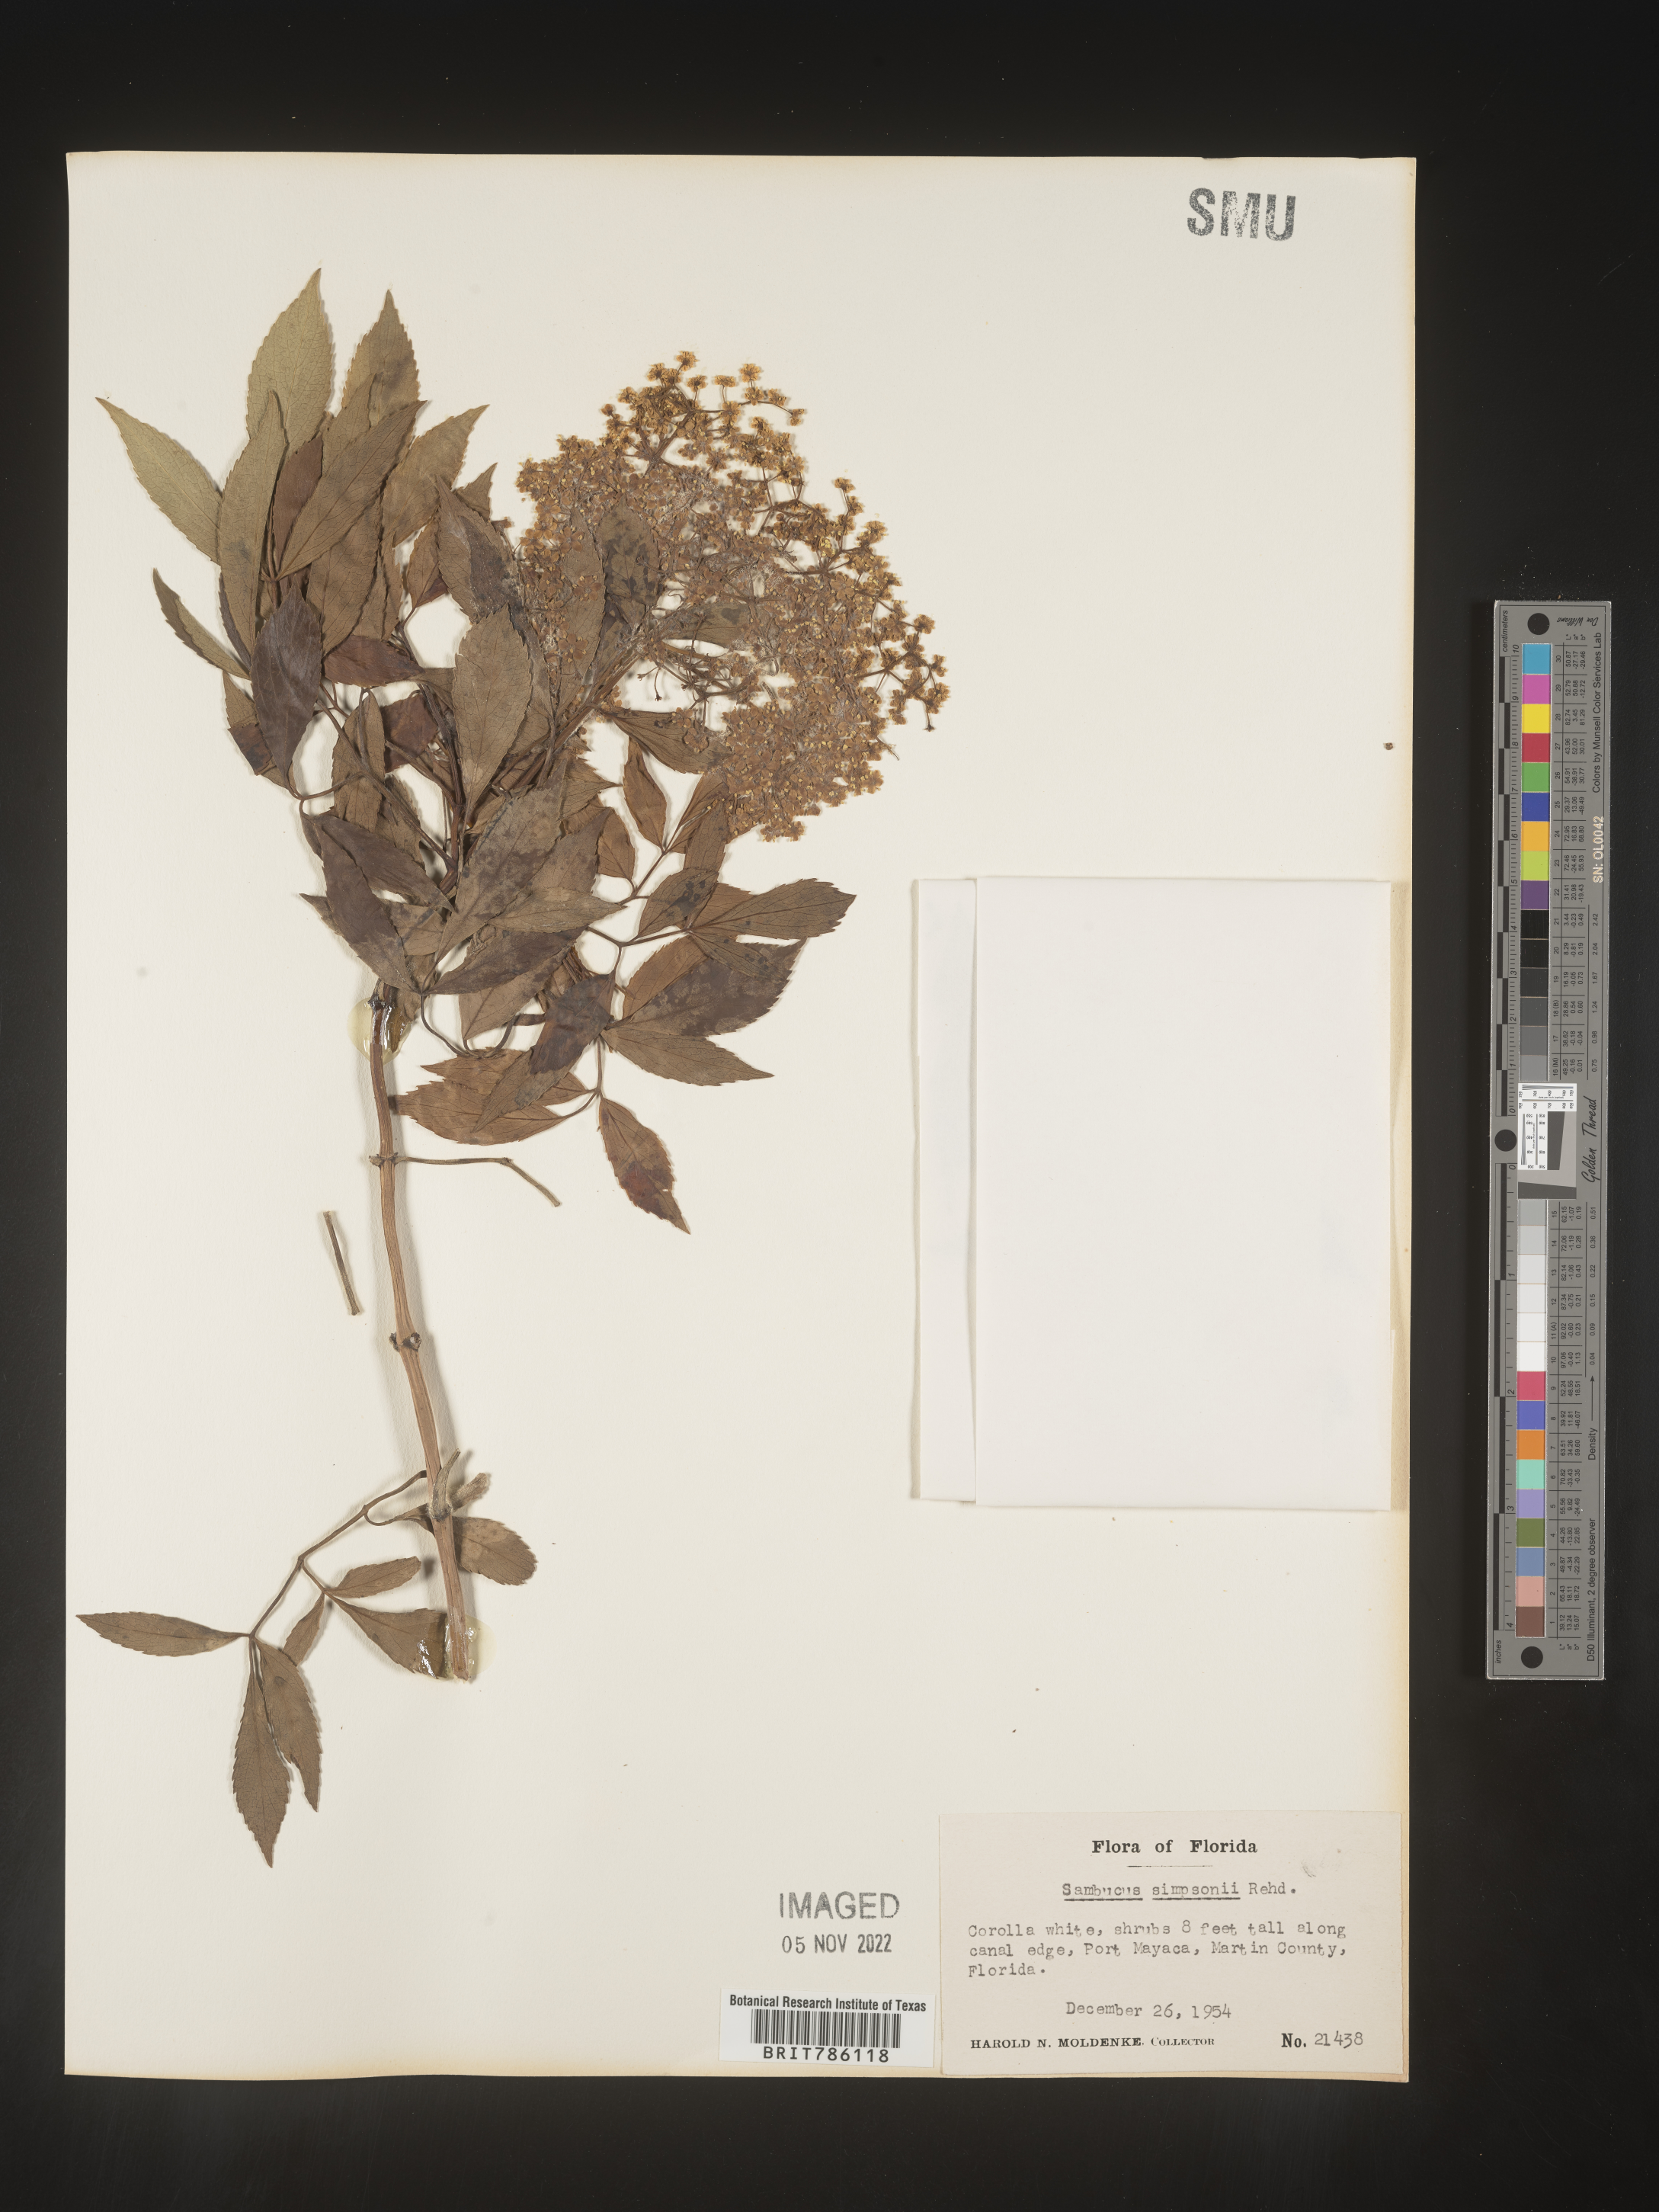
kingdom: Plantae
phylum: Tracheophyta
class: Magnoliopsida
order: Dipsacales
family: Viburnaceae
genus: Sambucus
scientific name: Sambucus
